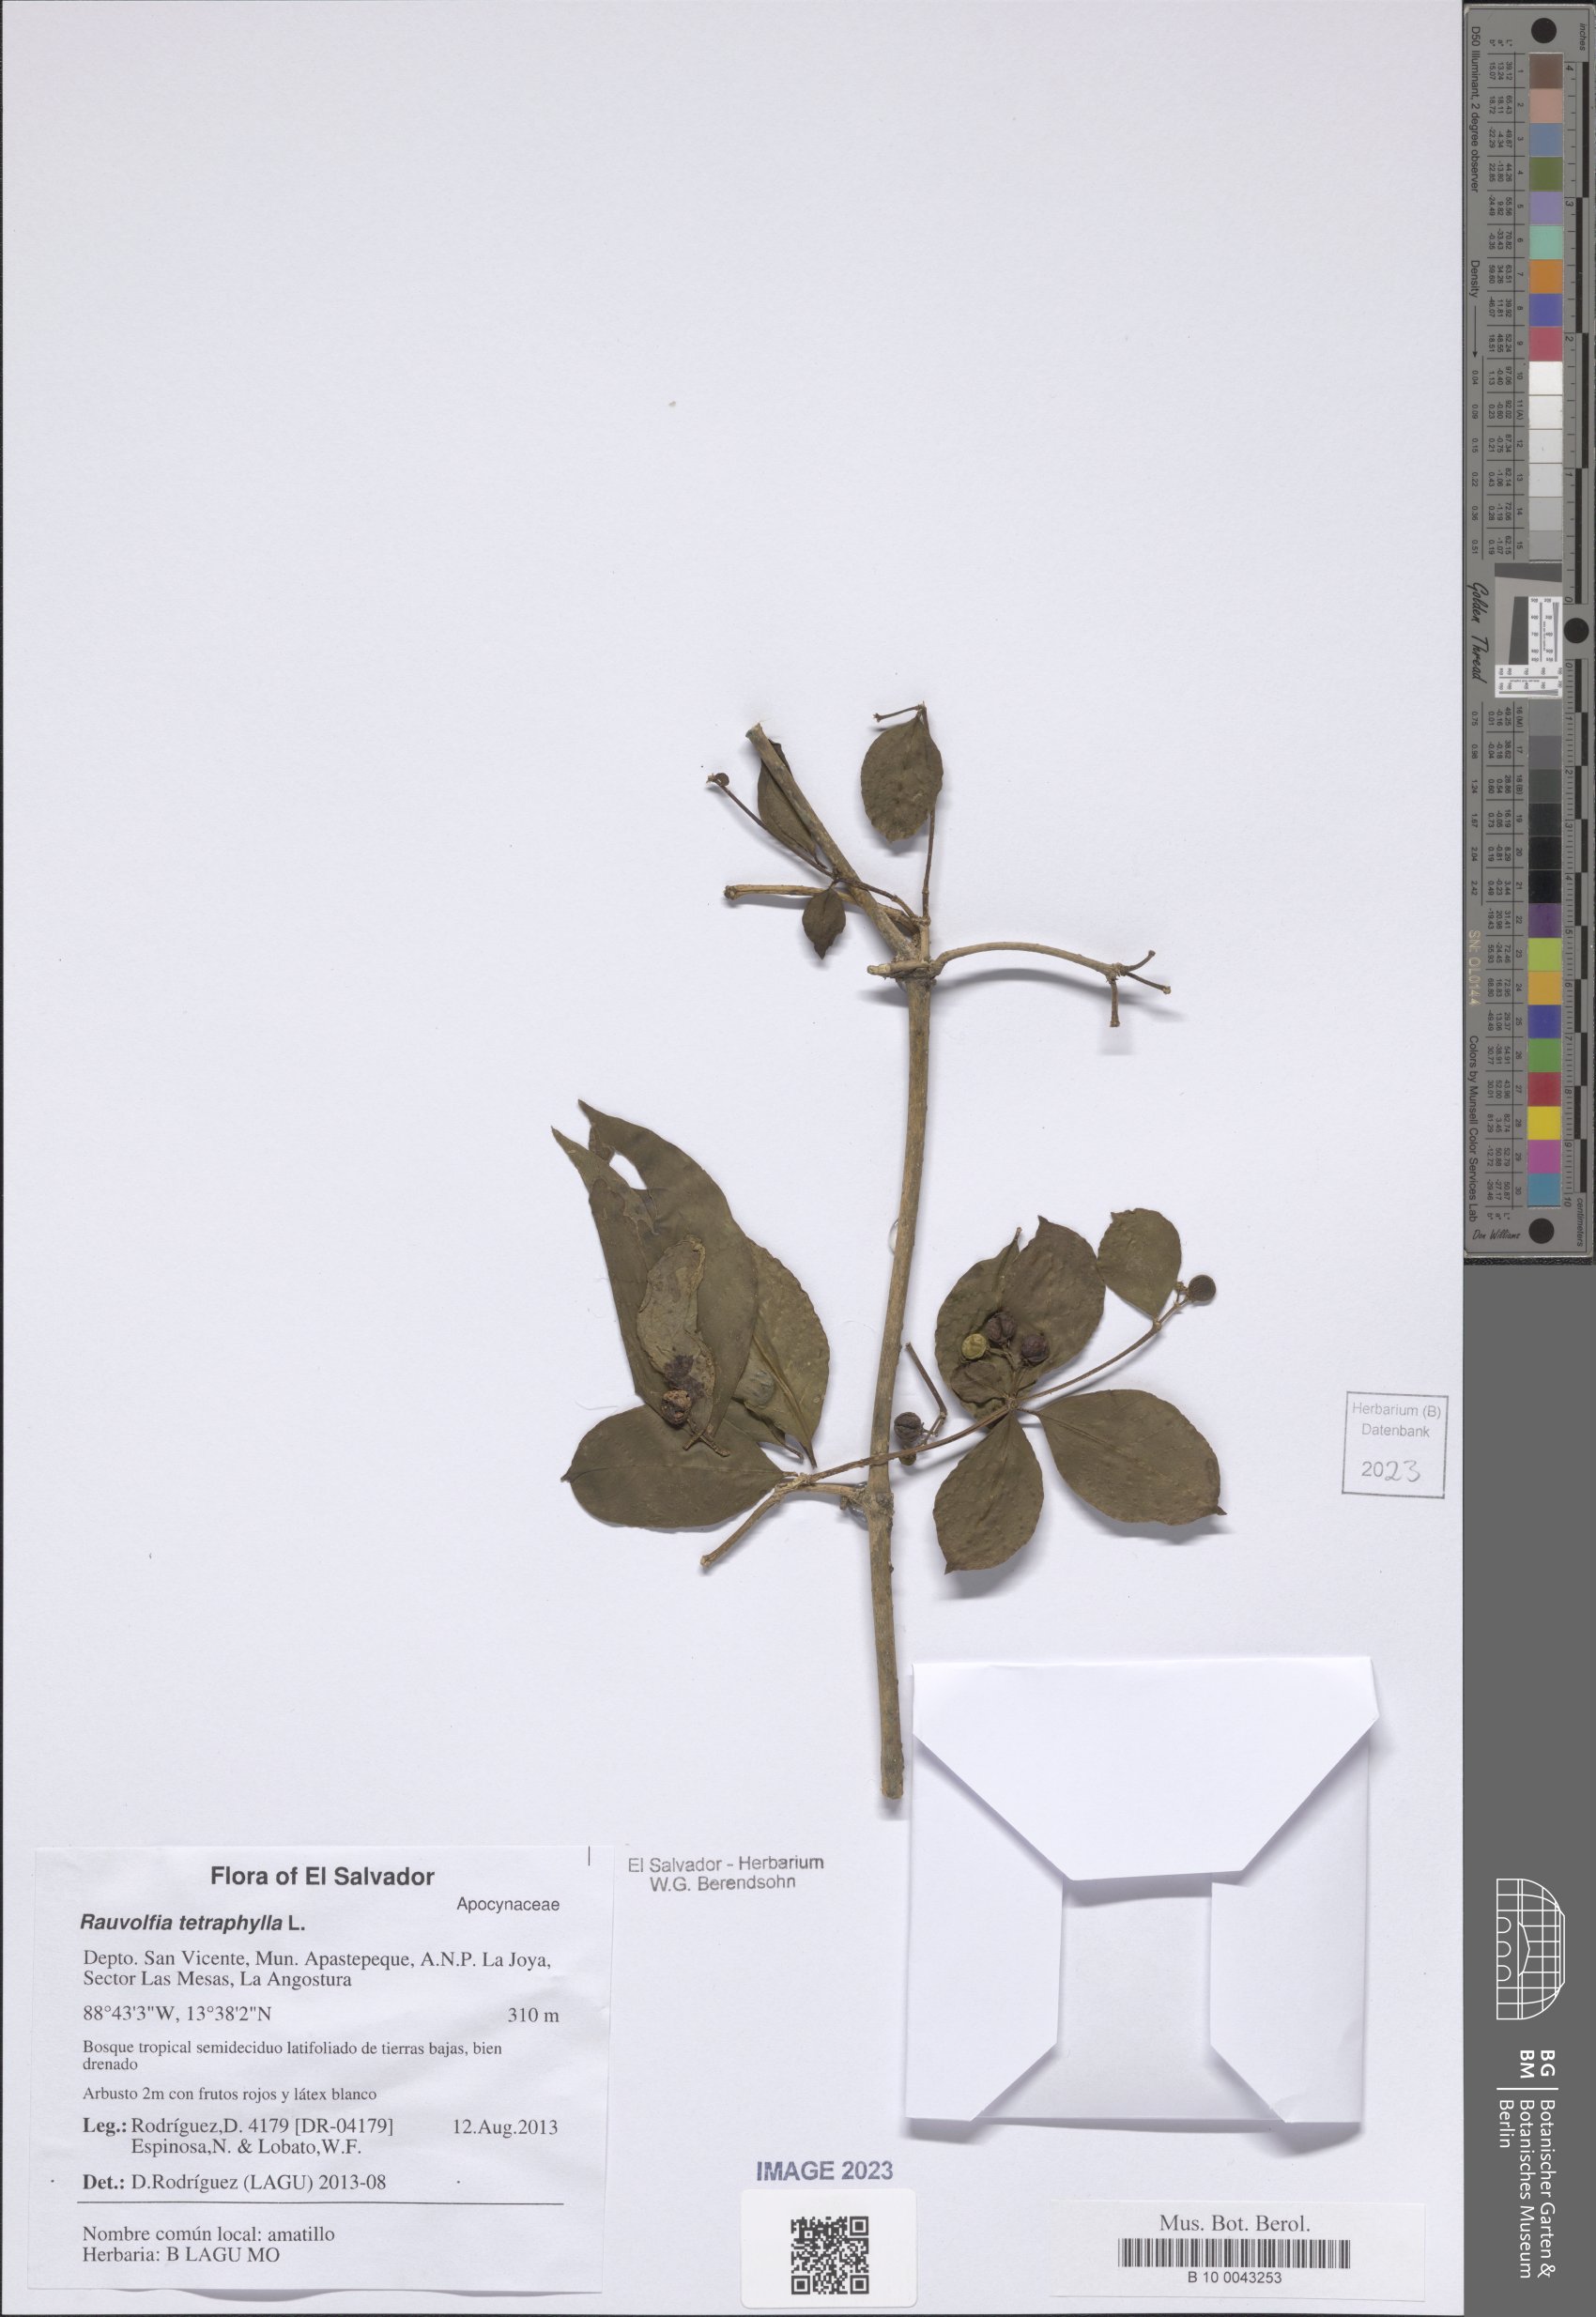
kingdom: Plantae
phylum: Tracheophyta
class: Magnoliopsida
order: Gentianales
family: Apocynaceae
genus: Rauvolfia
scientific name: Rauvolfia tetraphylla
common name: Four-leaf devil-pepper
